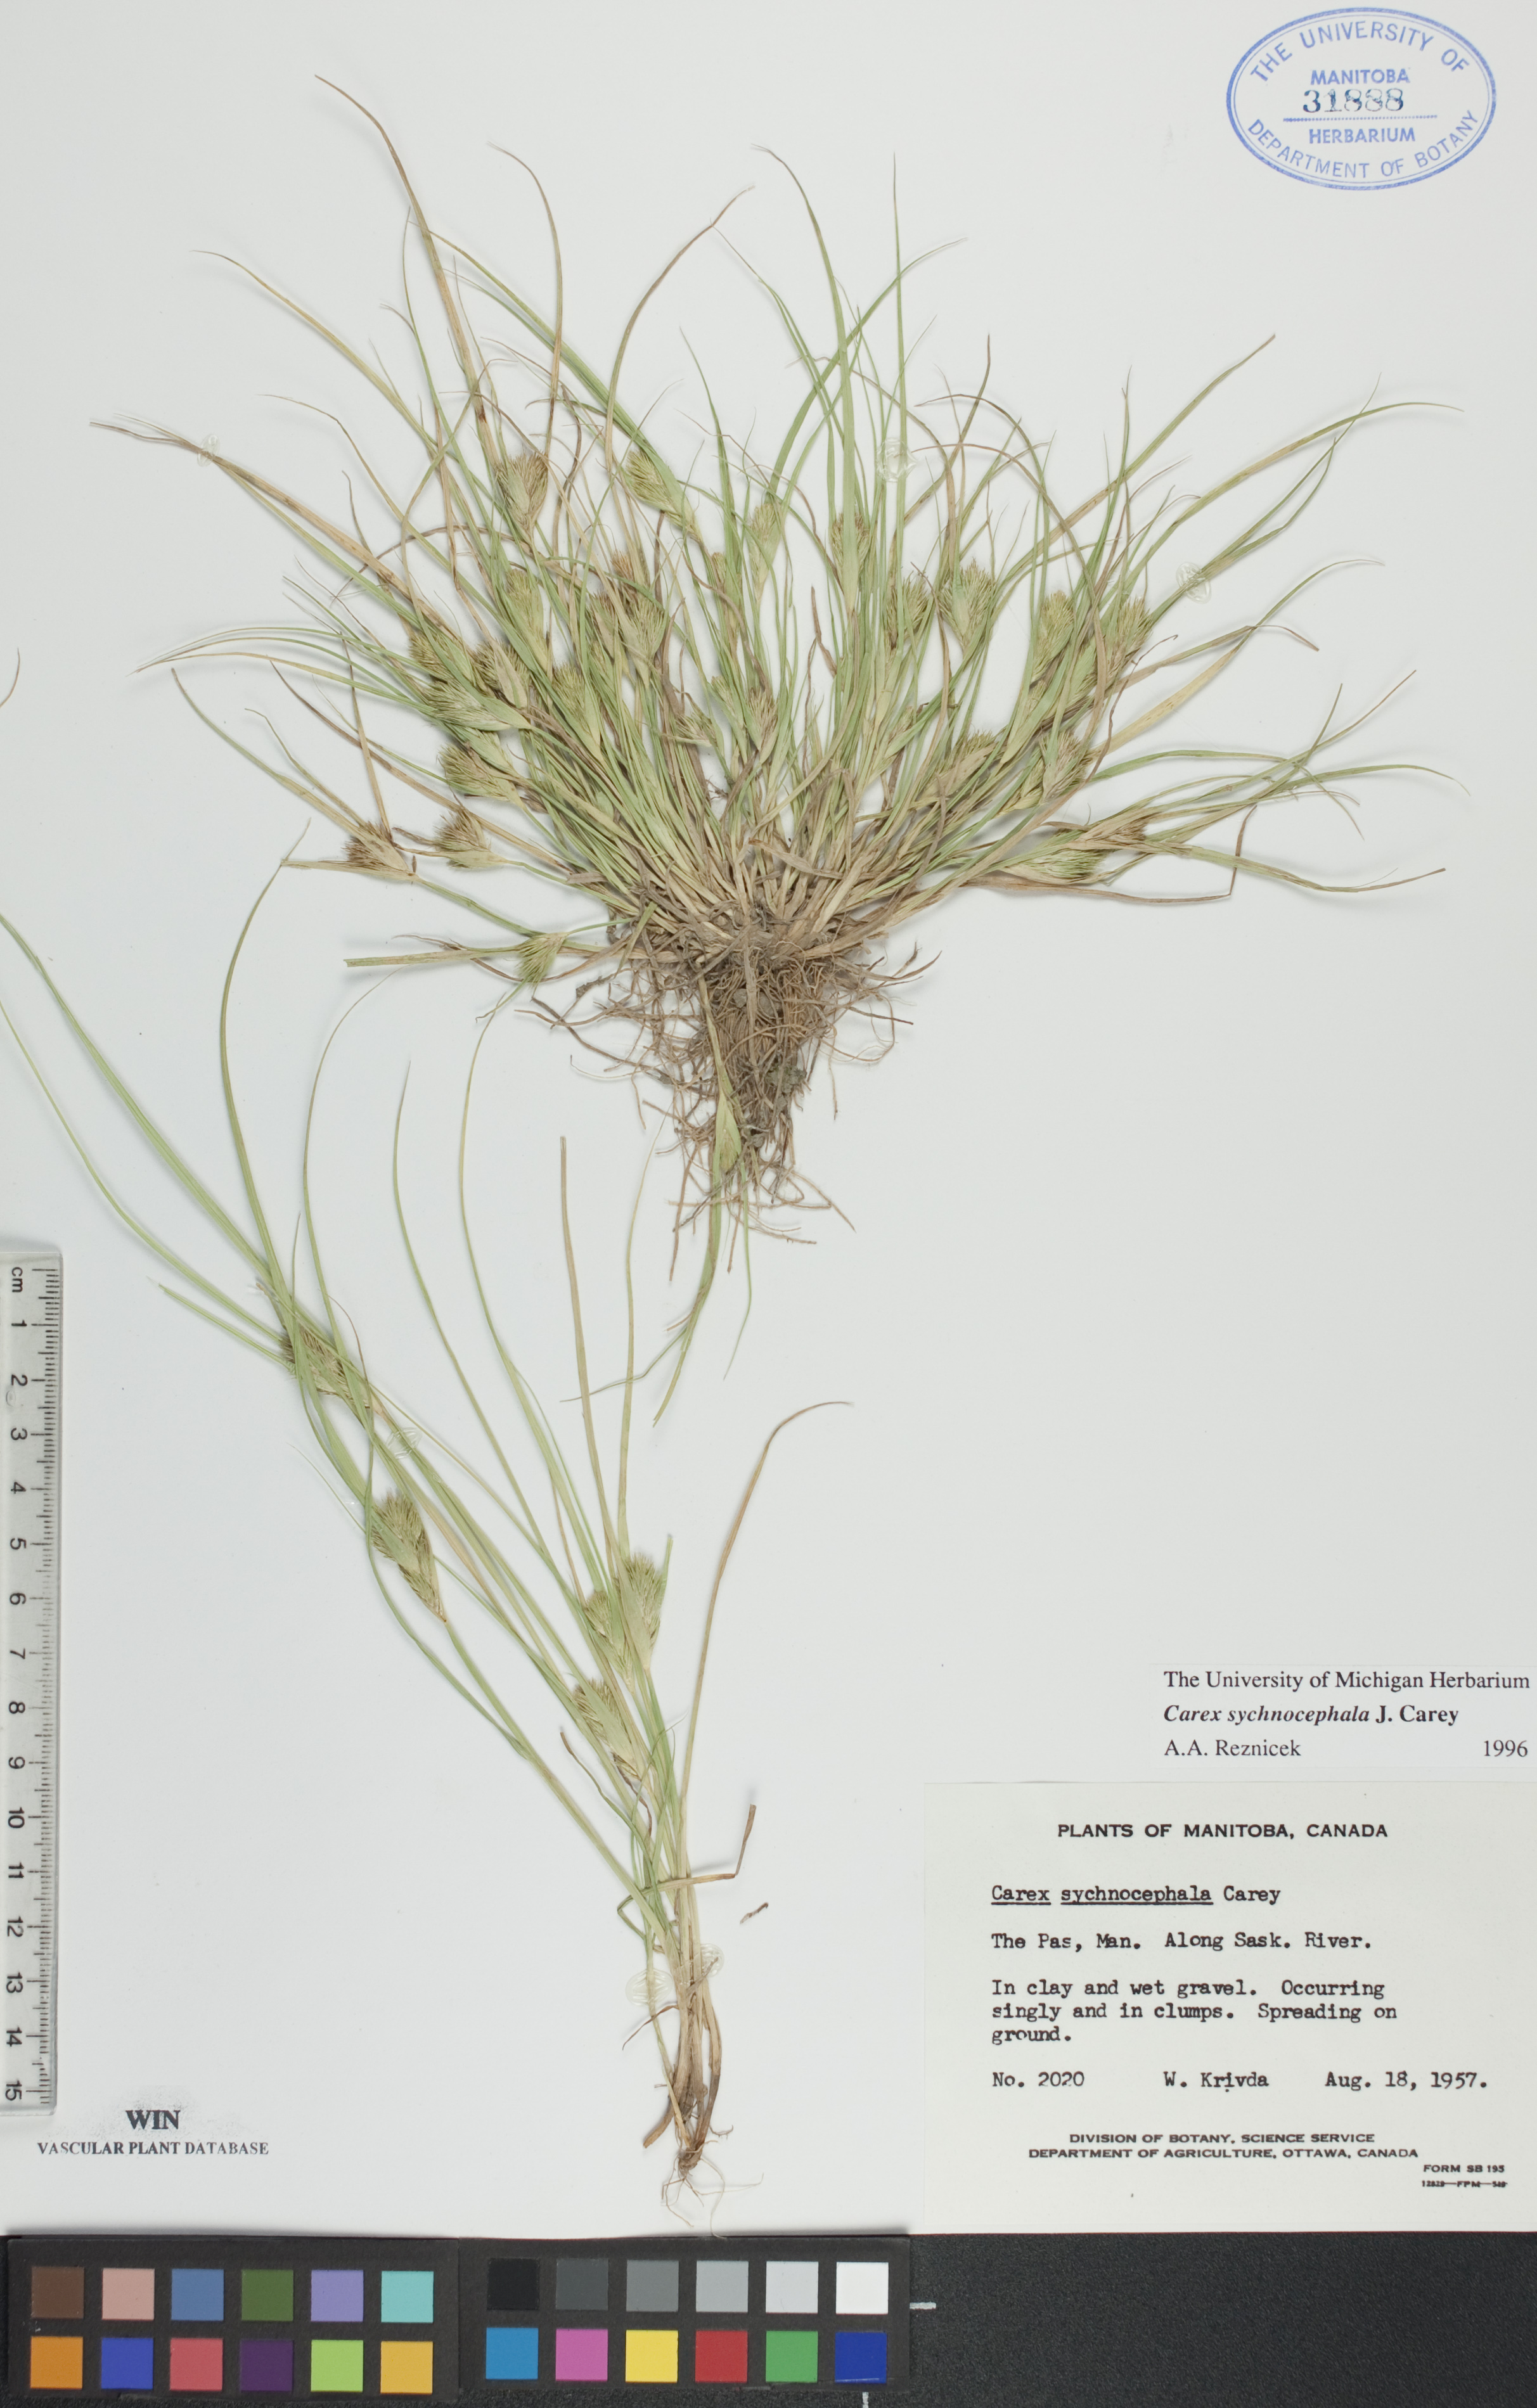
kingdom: Plantae
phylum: Tracheophyta
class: Liliopsida
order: Poales
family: Cyperaceae
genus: Carex
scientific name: Carex sychnocephala
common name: Dense long-beaked sedge
